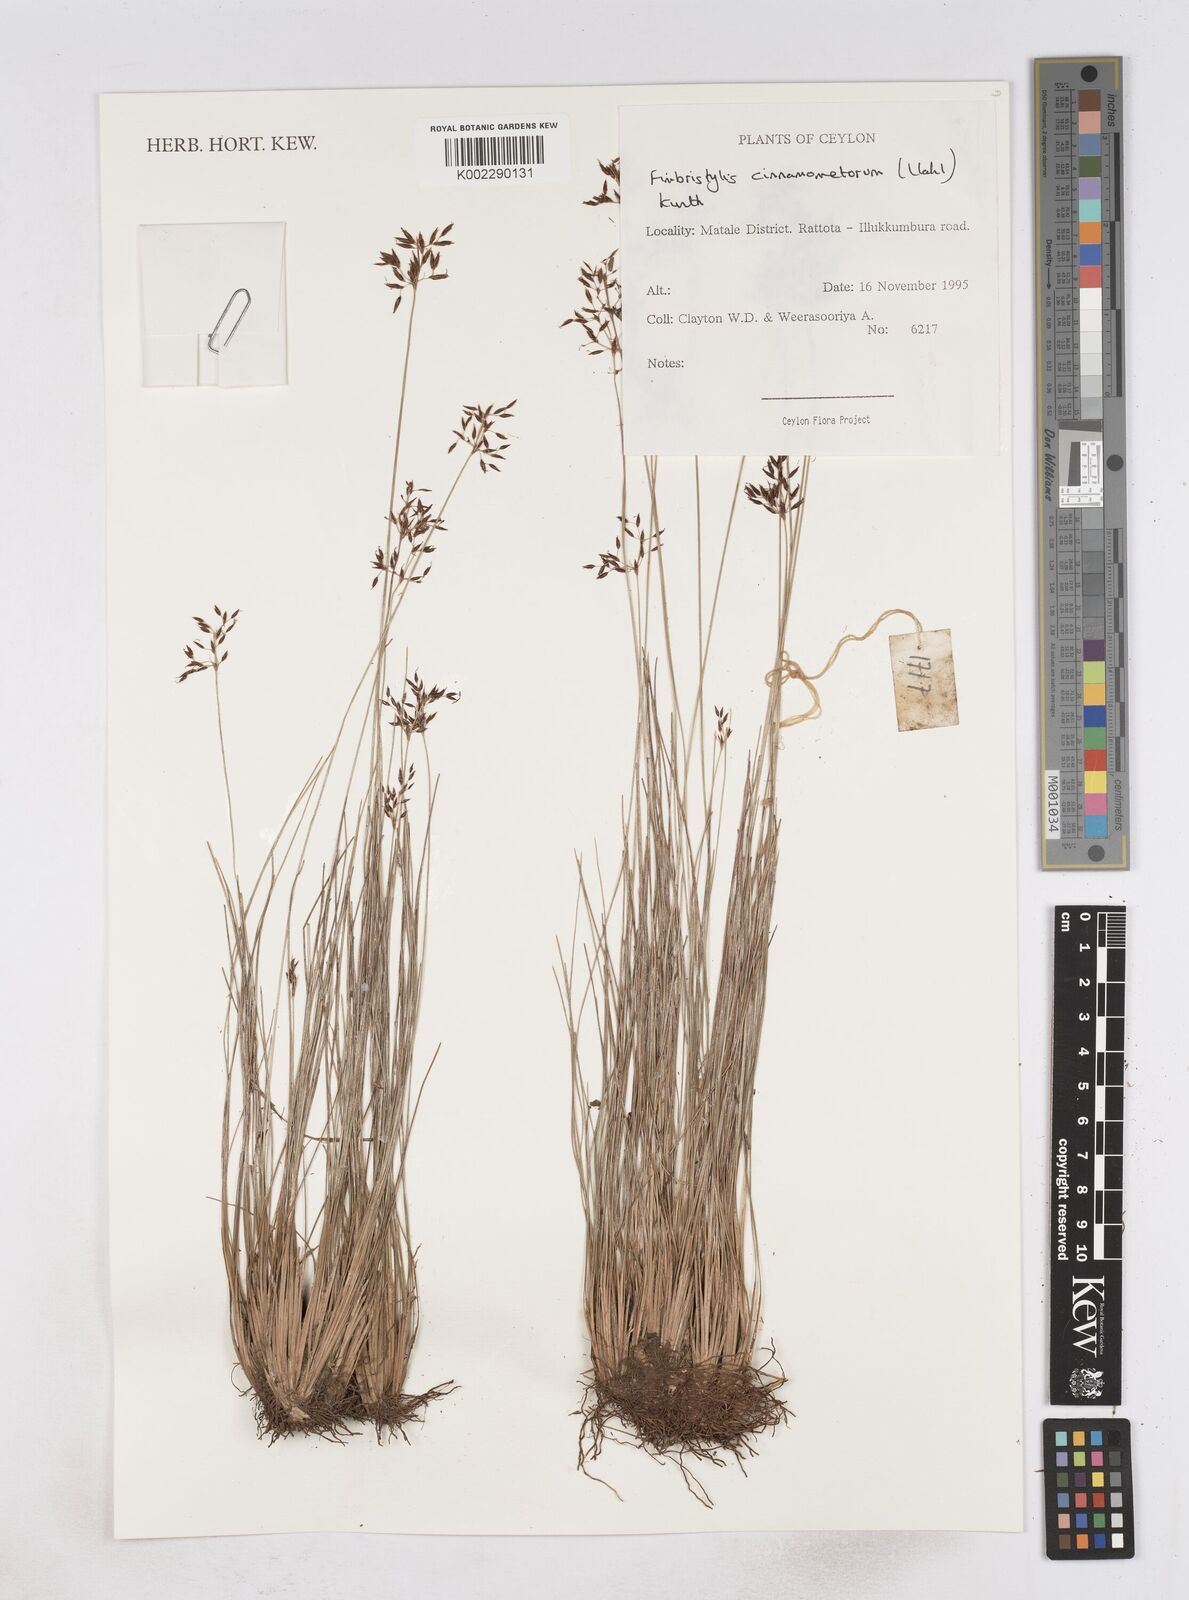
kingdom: Plantae
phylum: Tracheophyta
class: Liliopsida
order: Poales
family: Cyperaceae
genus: Fimbristylis
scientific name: Fimbristylis cinnamometorum
